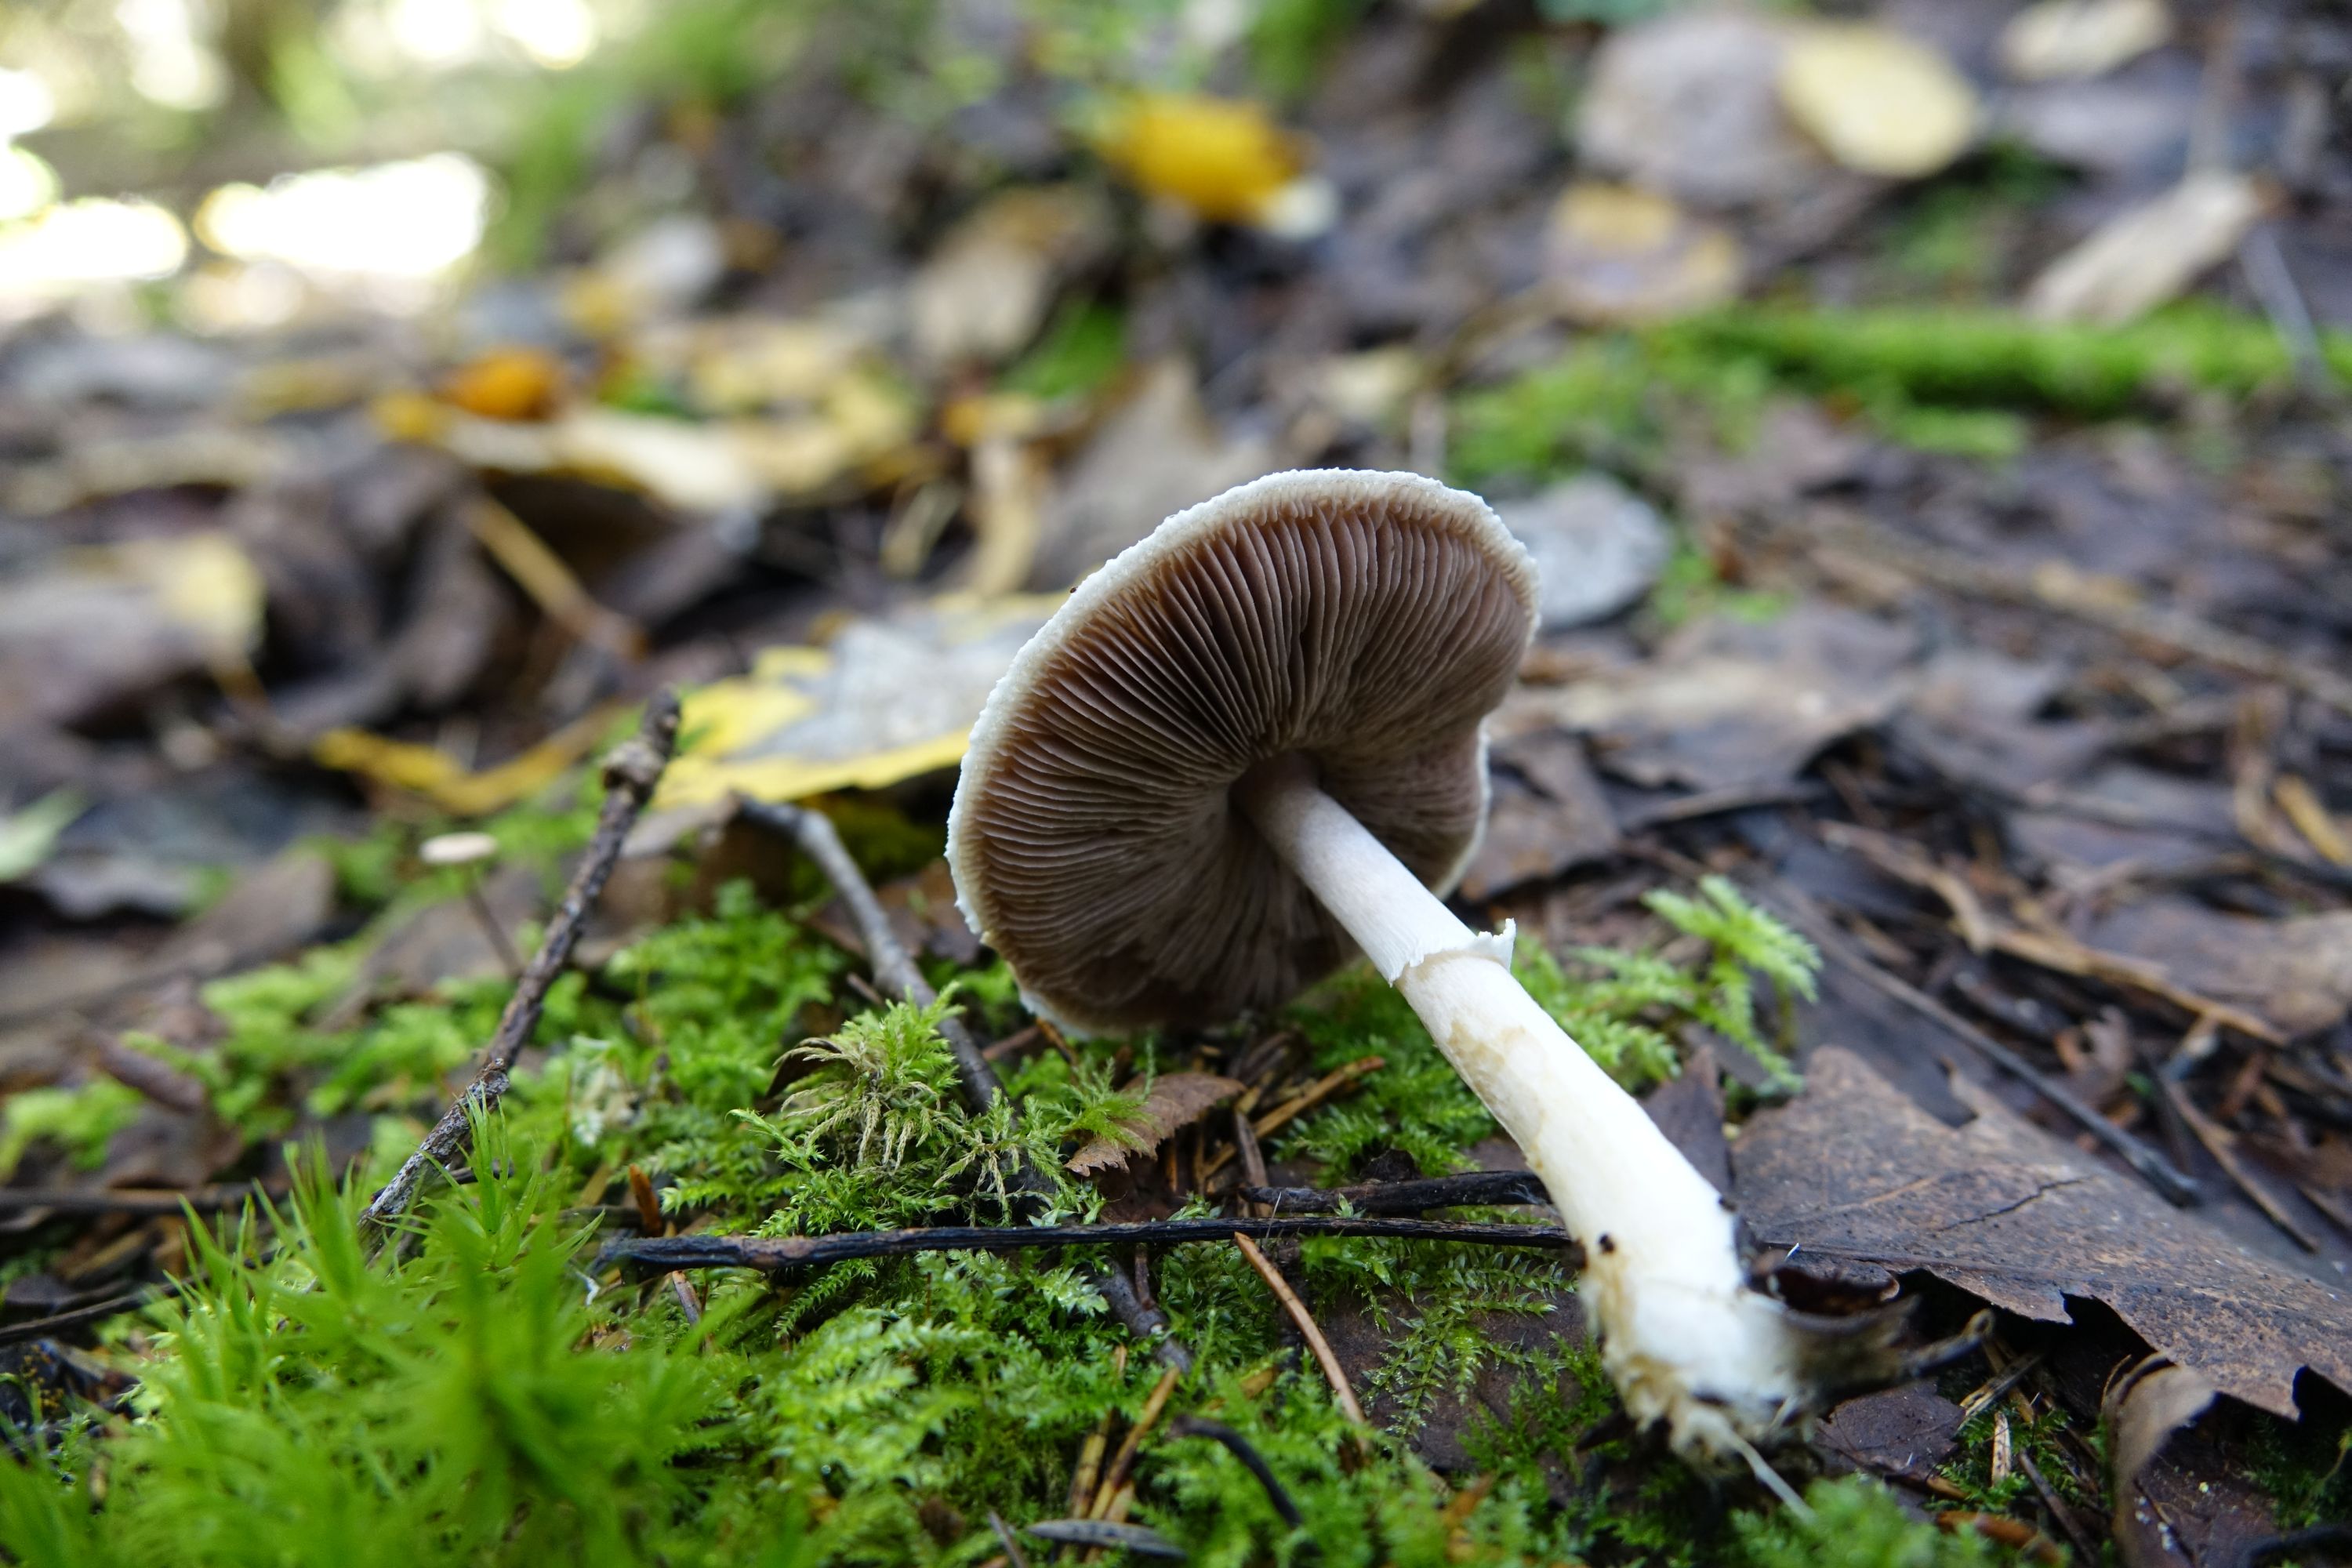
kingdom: Fungi
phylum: Basidiomycota
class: Agaricomycetes
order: Agaricales
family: Agaricaceae
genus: Agaricus
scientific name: Agaricus comtulus
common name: Ornamented mushroom
